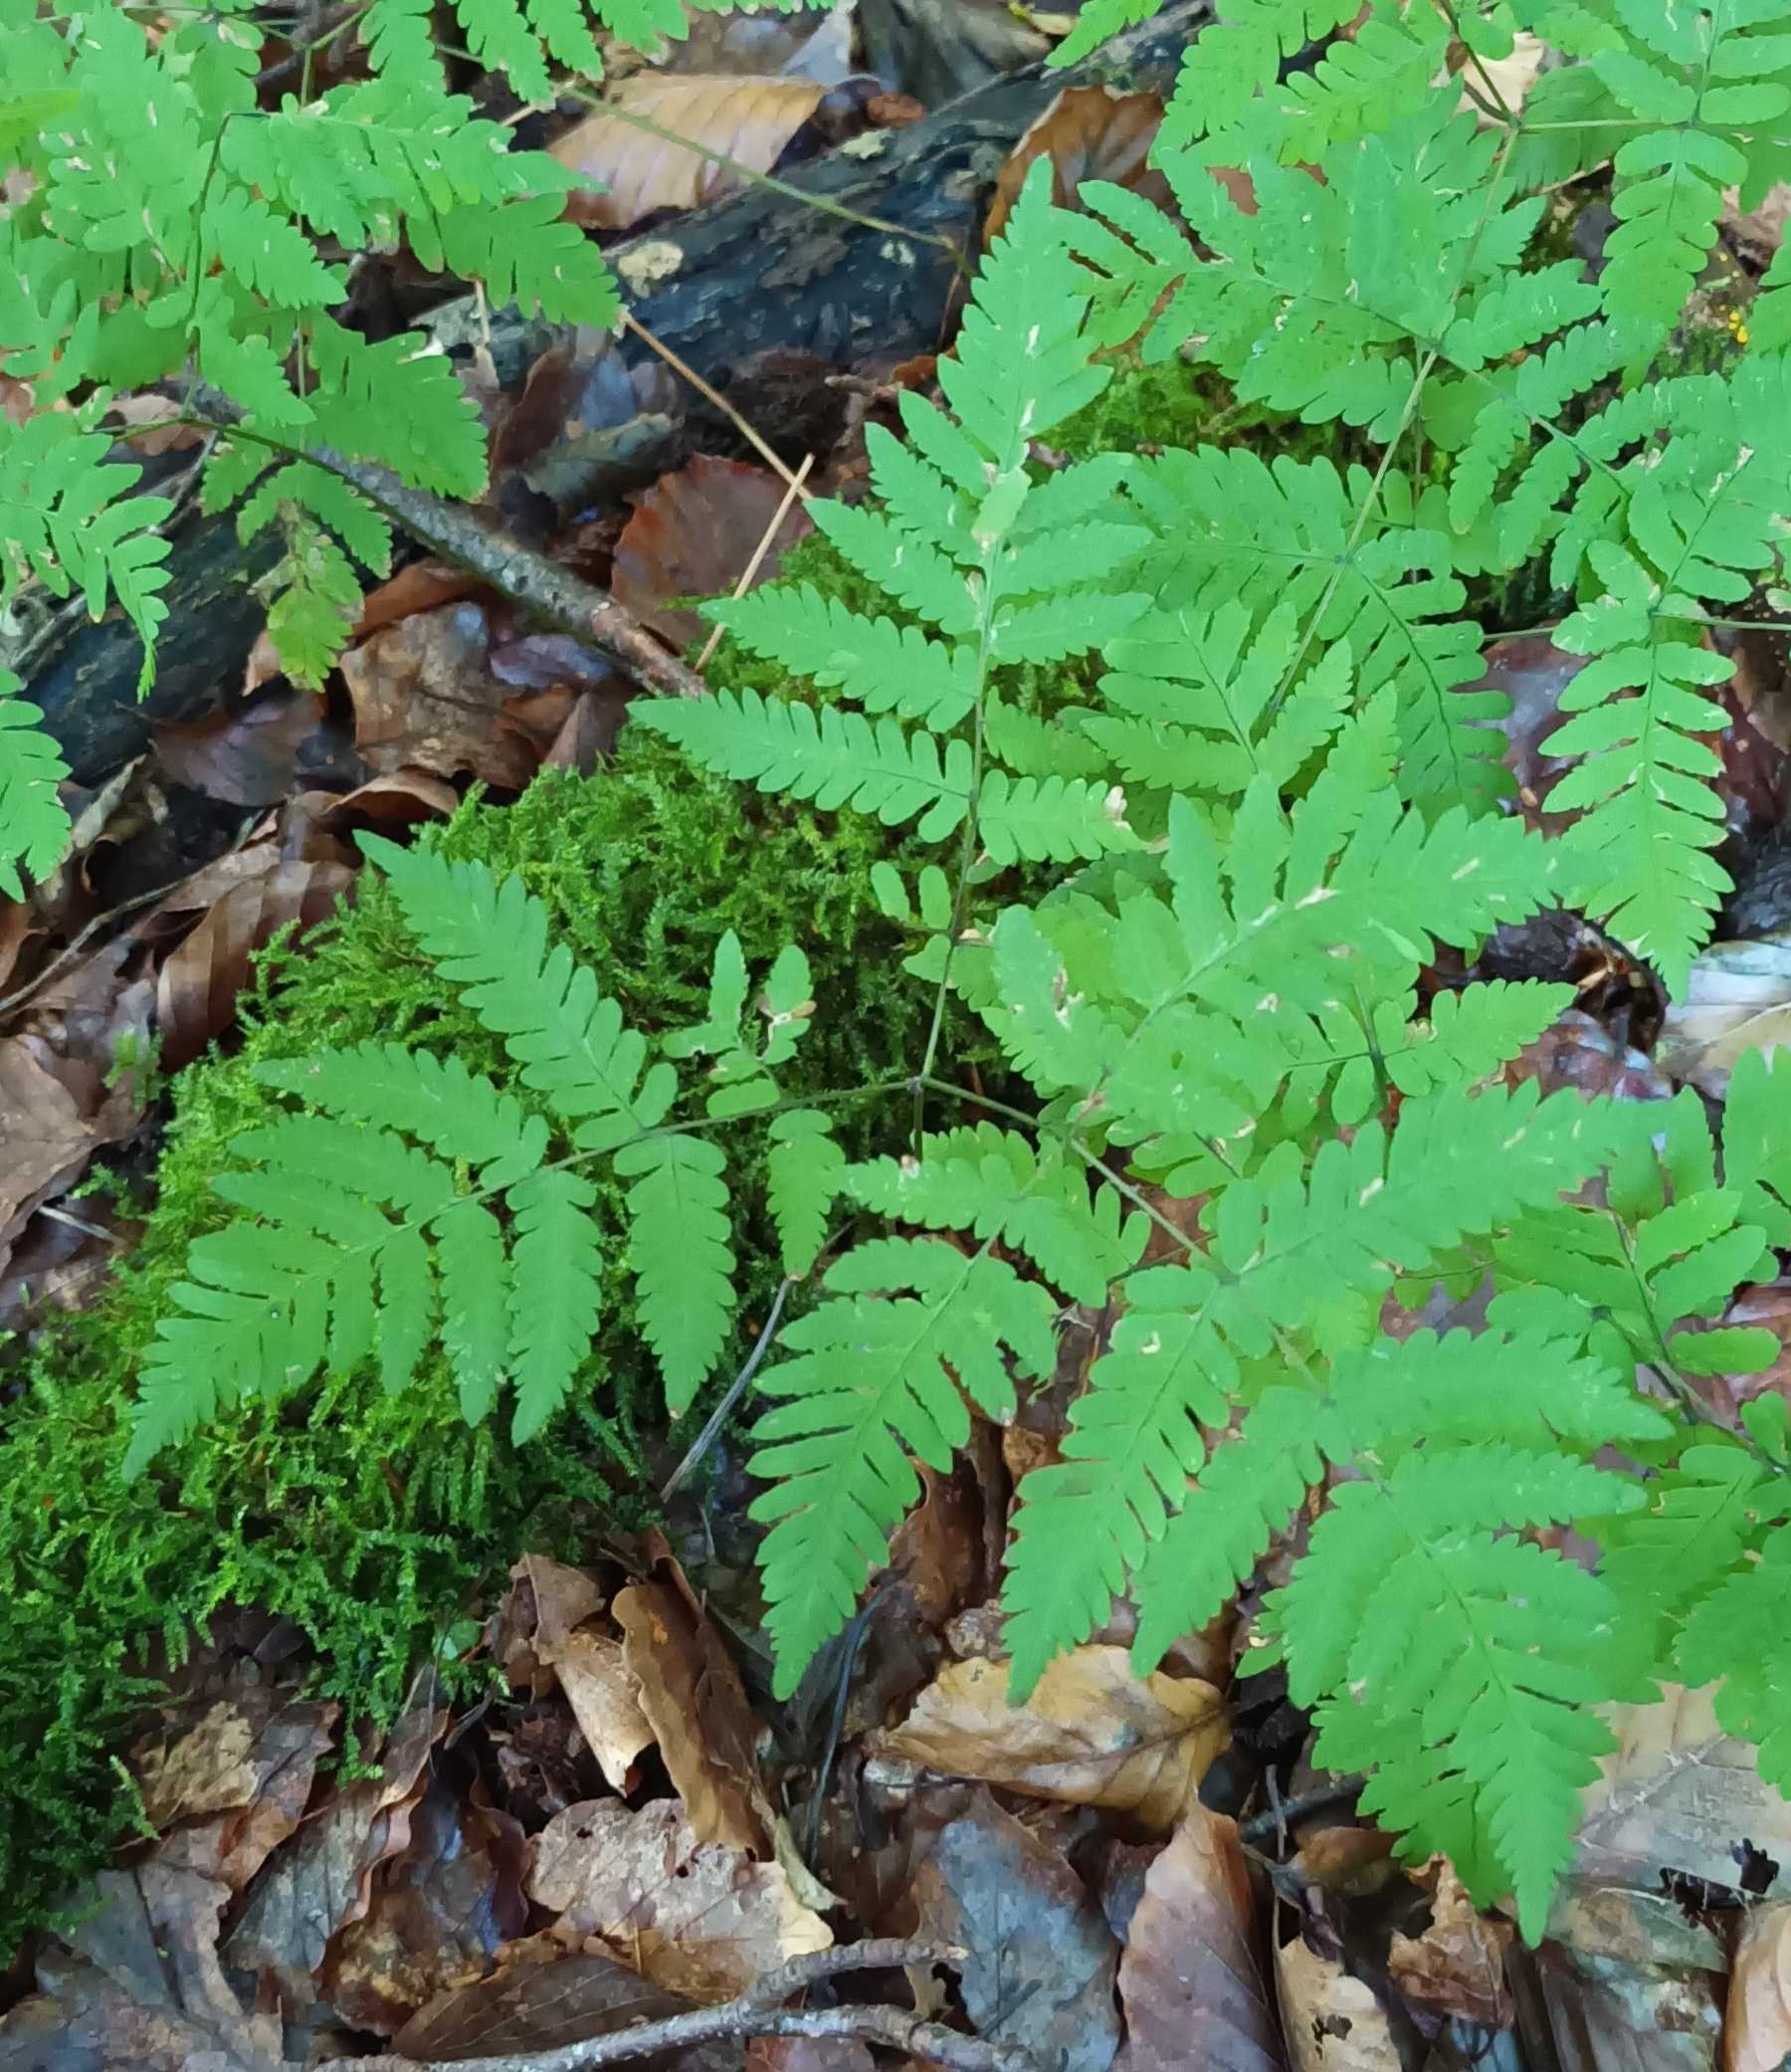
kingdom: Plantae
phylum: Tracheophyta
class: Polypodiopsida
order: Polypodiales
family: Cystopteridaceae
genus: Gymnocarpium
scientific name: Gymnocarpium dryopteris
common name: Tredelt egebregne
